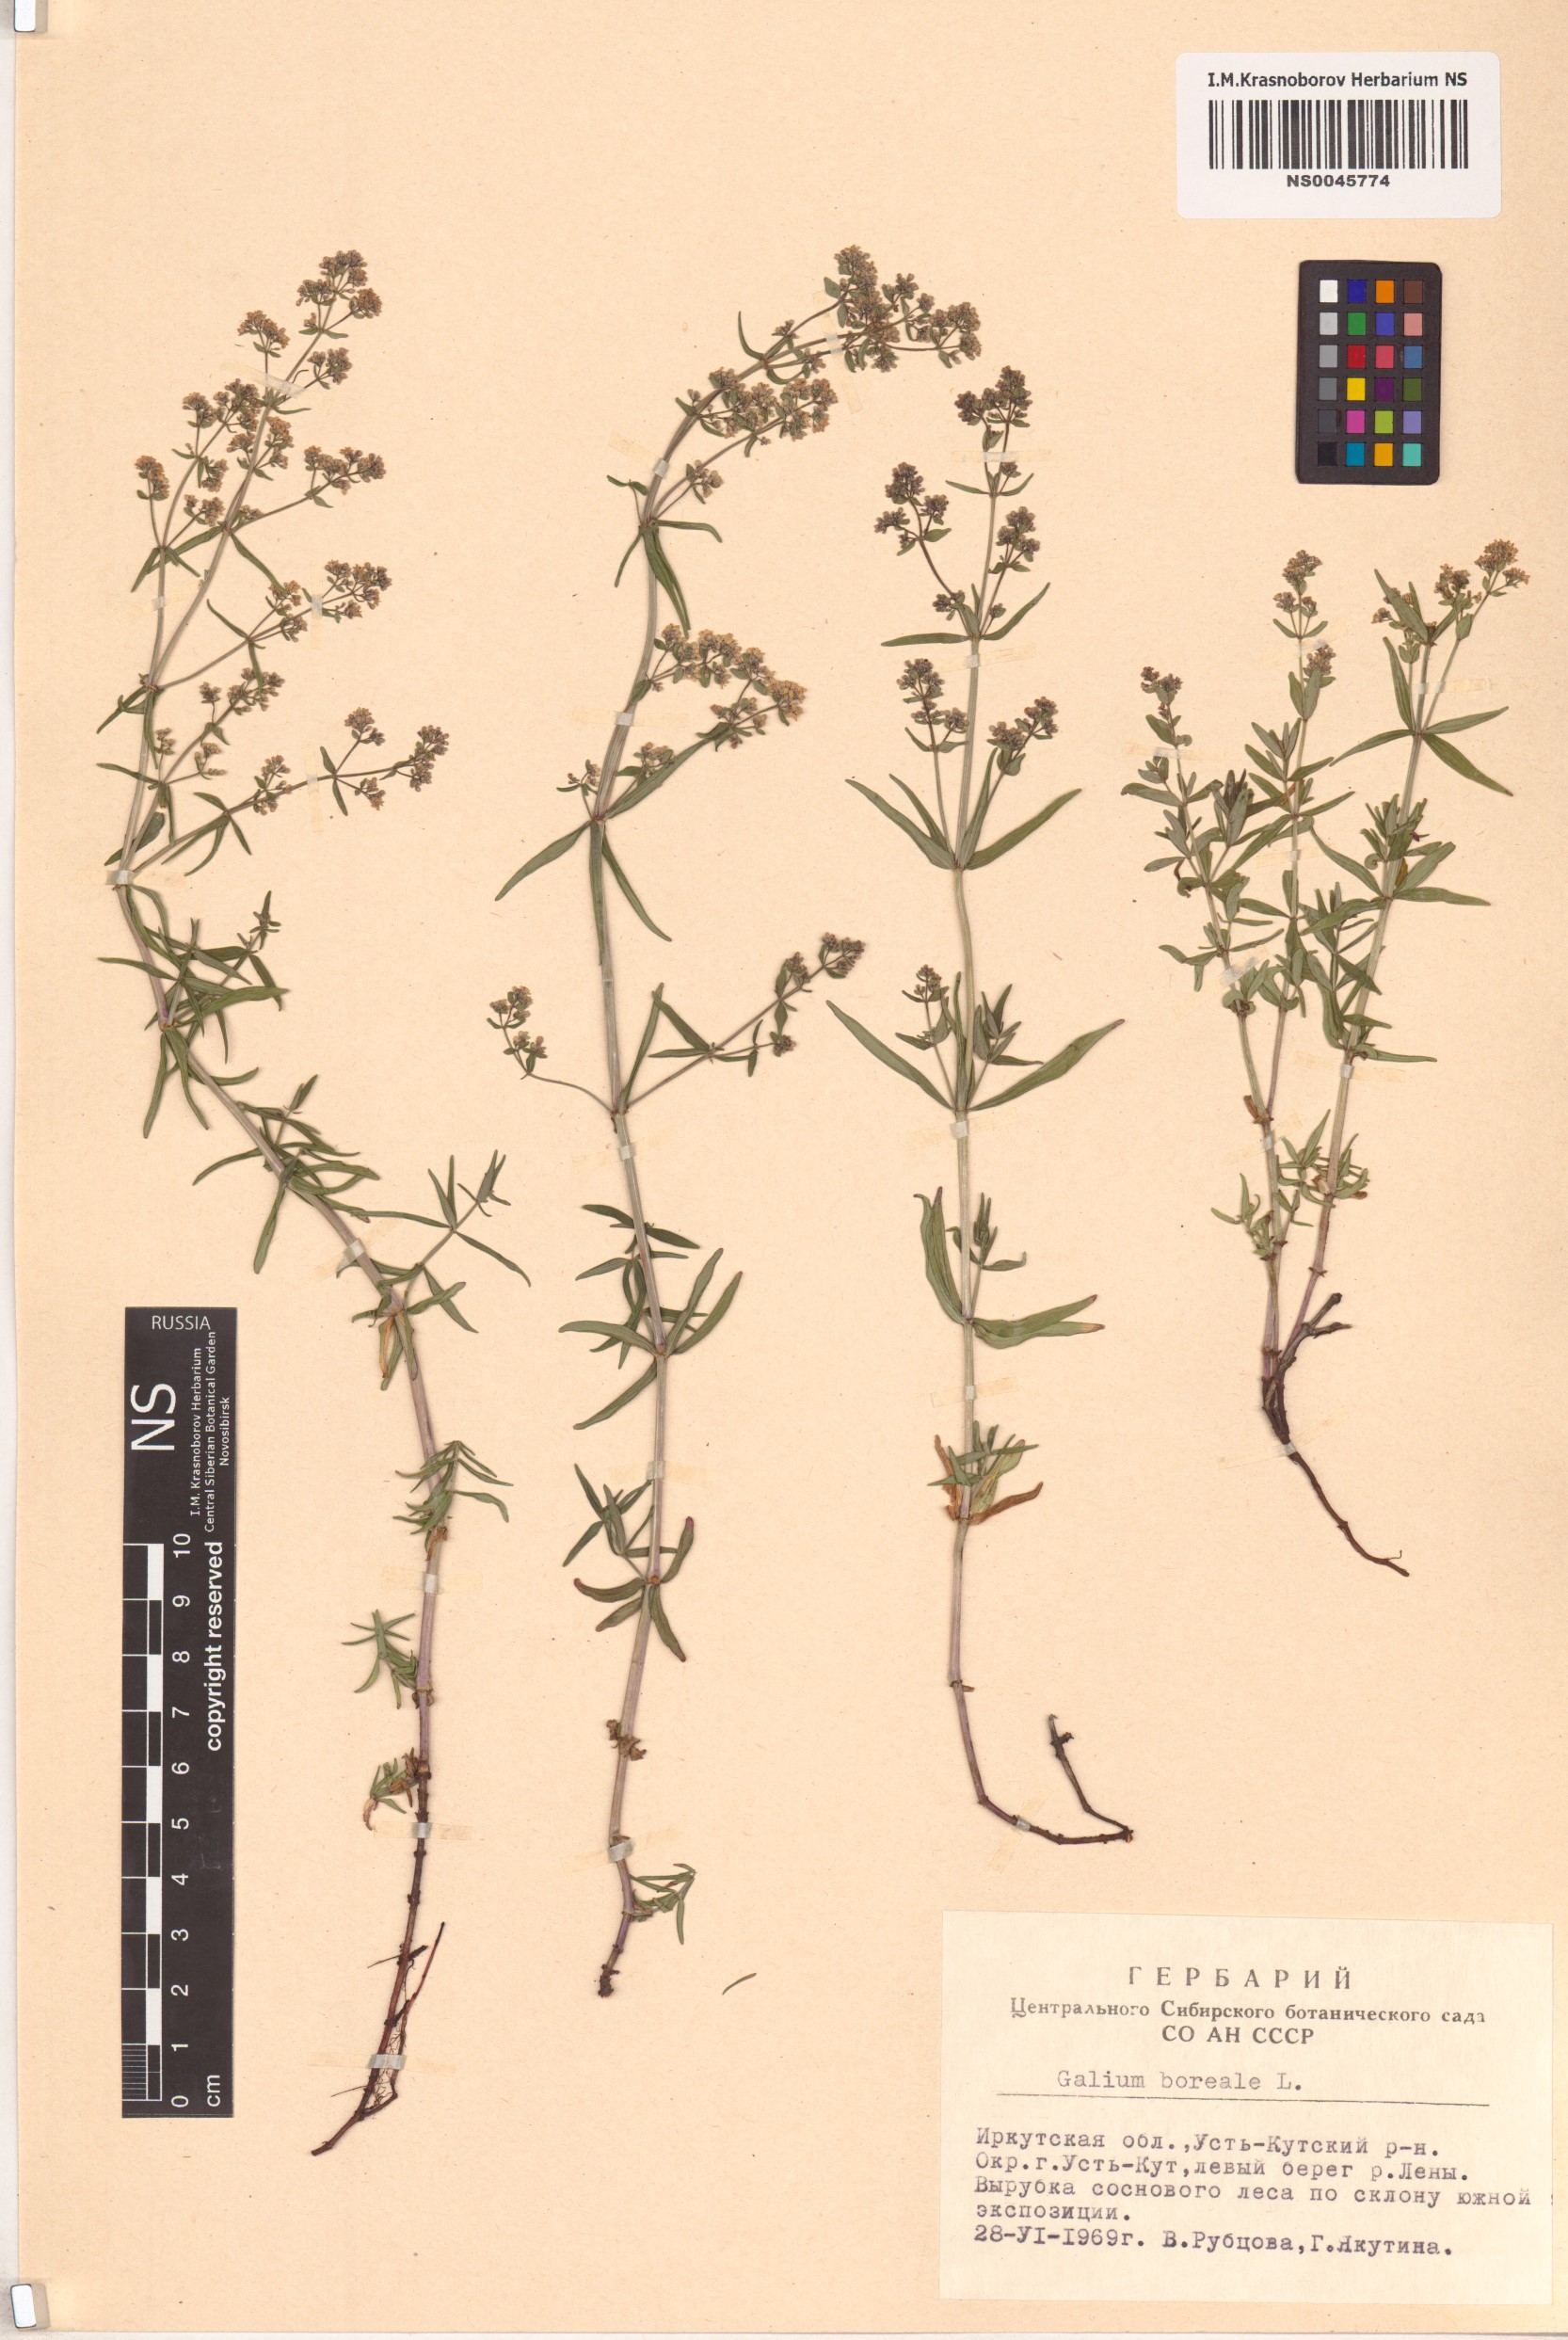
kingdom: Plantae
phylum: Tracheophyta
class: Magnoliopsida
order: Gentianales
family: Rubiaceae
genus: Galium
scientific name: Galium boreale
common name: Northern bedstraw
